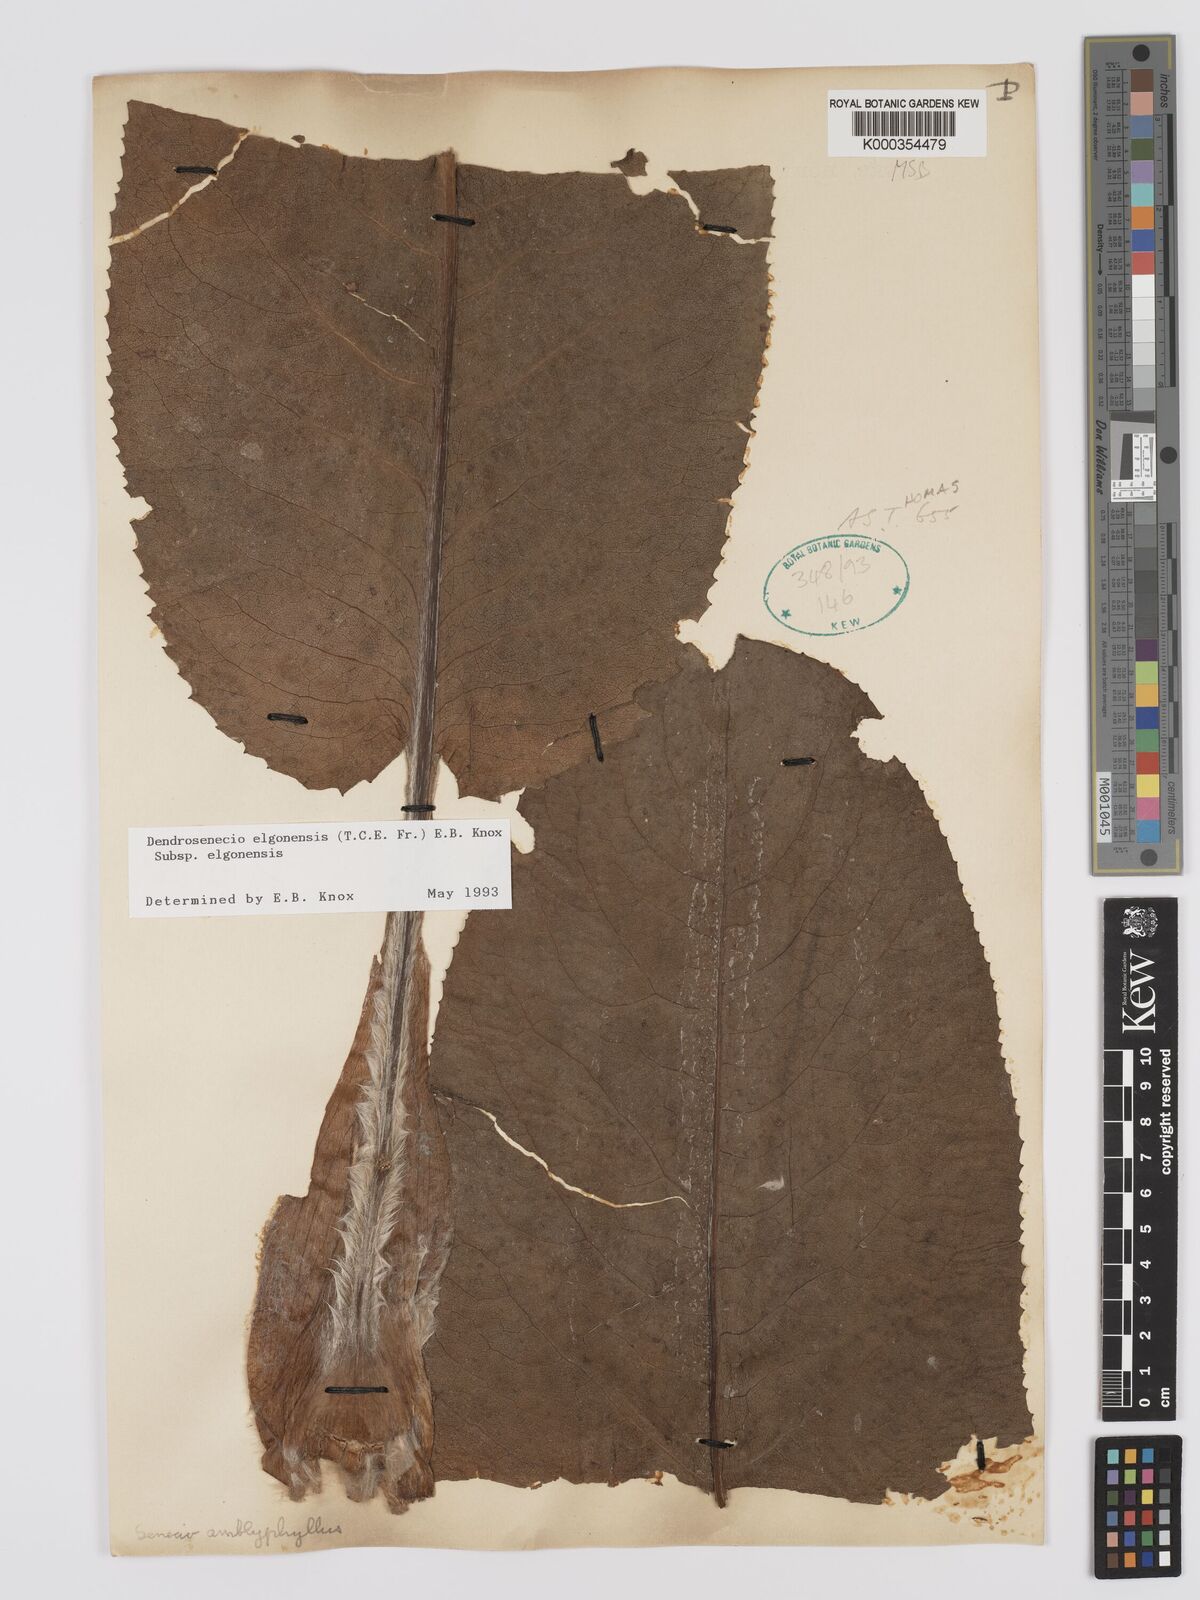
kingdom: Plantae
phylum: Tracheophyta
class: Magnoliopsida
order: Asterales
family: Asteraceae
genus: Dendrosenecio
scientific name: Dendrosenecio elgonensis
